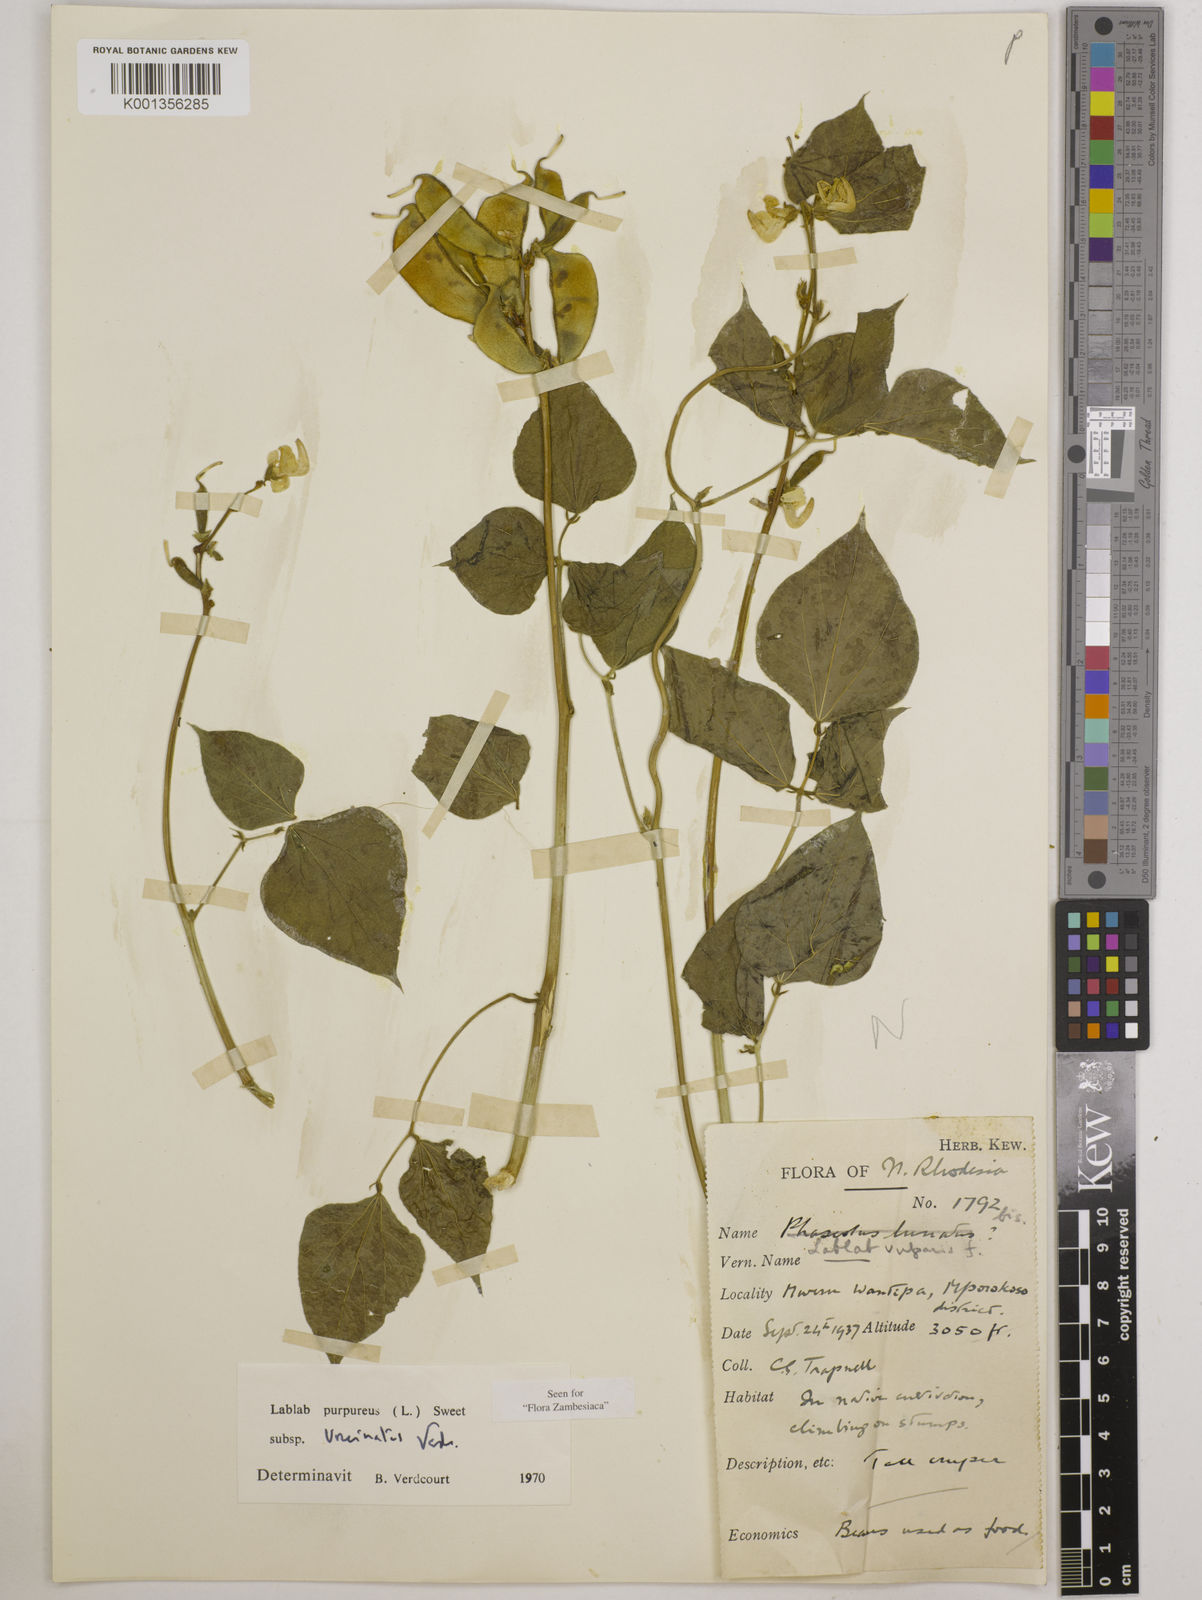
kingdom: Plantae
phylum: Tracheophyta
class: Magnoliopsida
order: Fabales
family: Fabaceae
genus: Lablab
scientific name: Lablab
